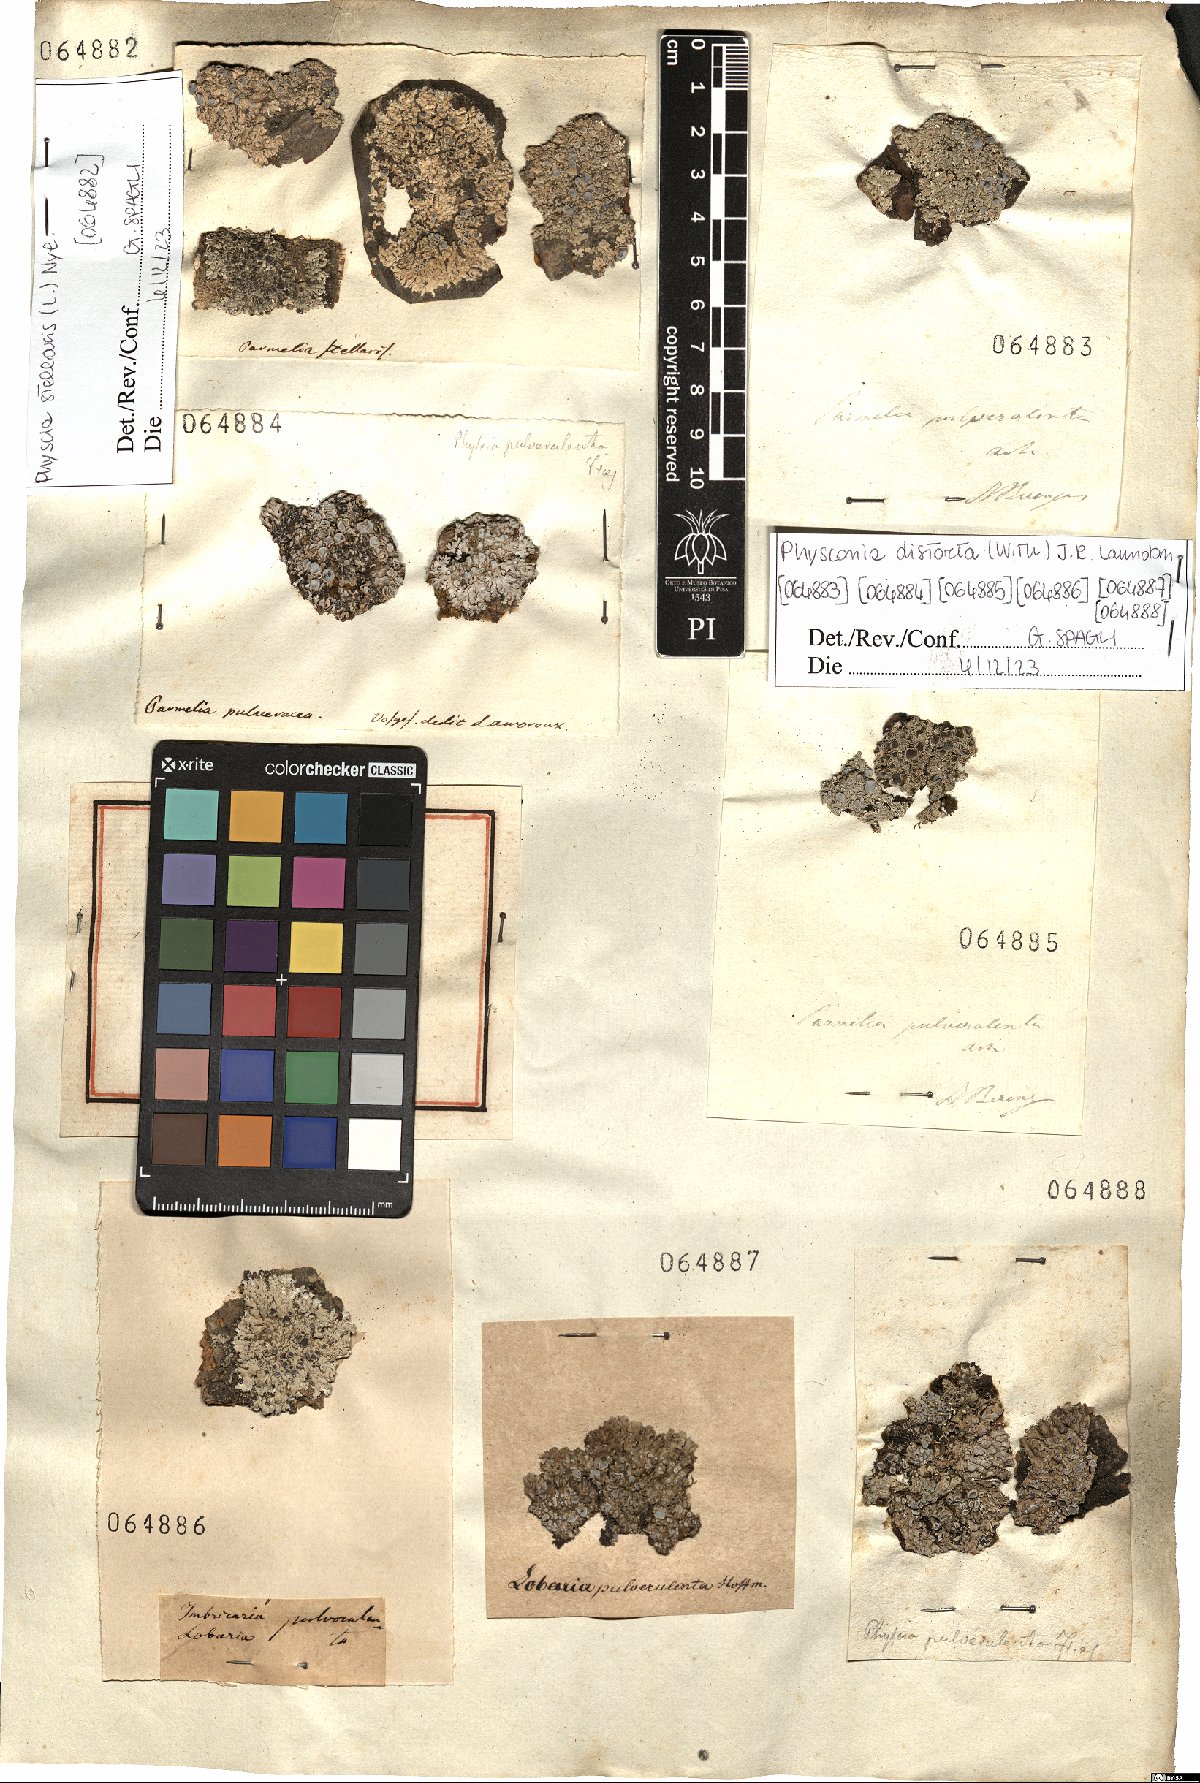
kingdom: Fungi
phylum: Ascomycota
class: Lecanoromycetes
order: Caliciales
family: Physciaceae
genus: Physconia
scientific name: Physconia distorta
